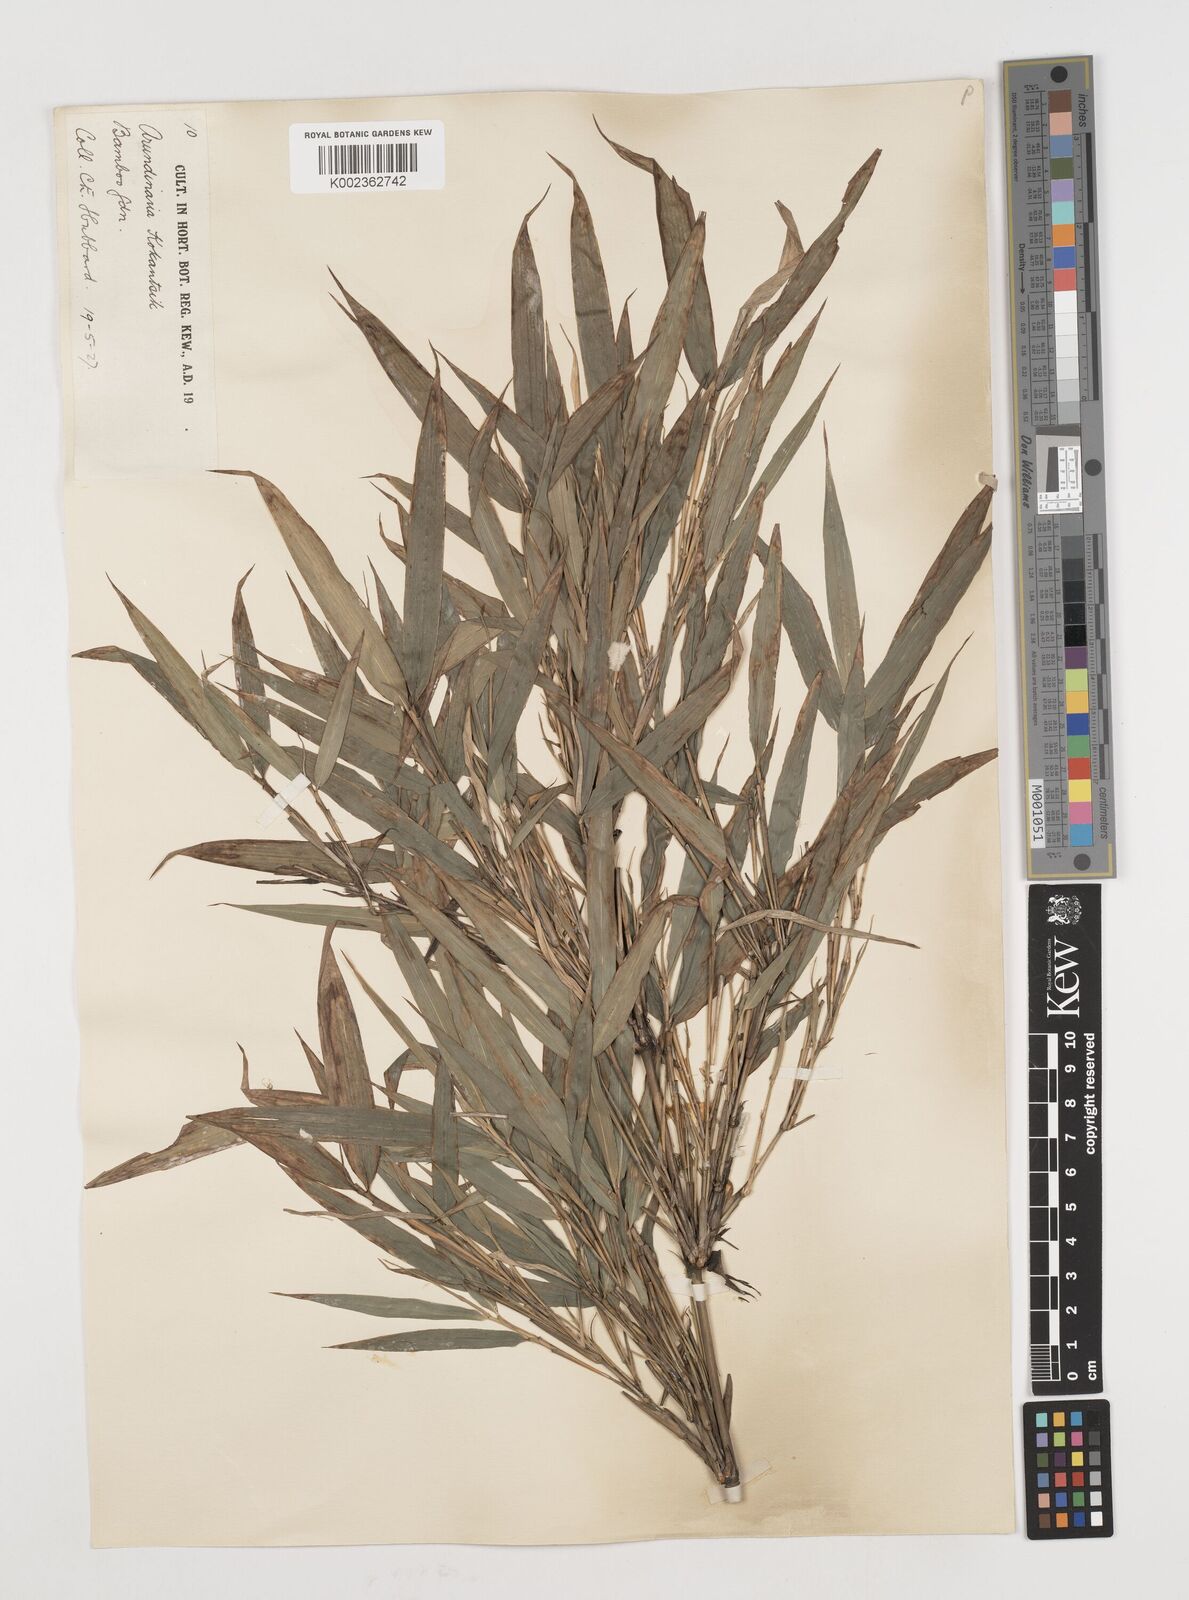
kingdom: Plantae
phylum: Tracheophyta
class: Liliopsida
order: Poales
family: Poaceae
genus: Chimonobambusa
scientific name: Chimonobambusa marmorea
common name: Marbled bamboo
